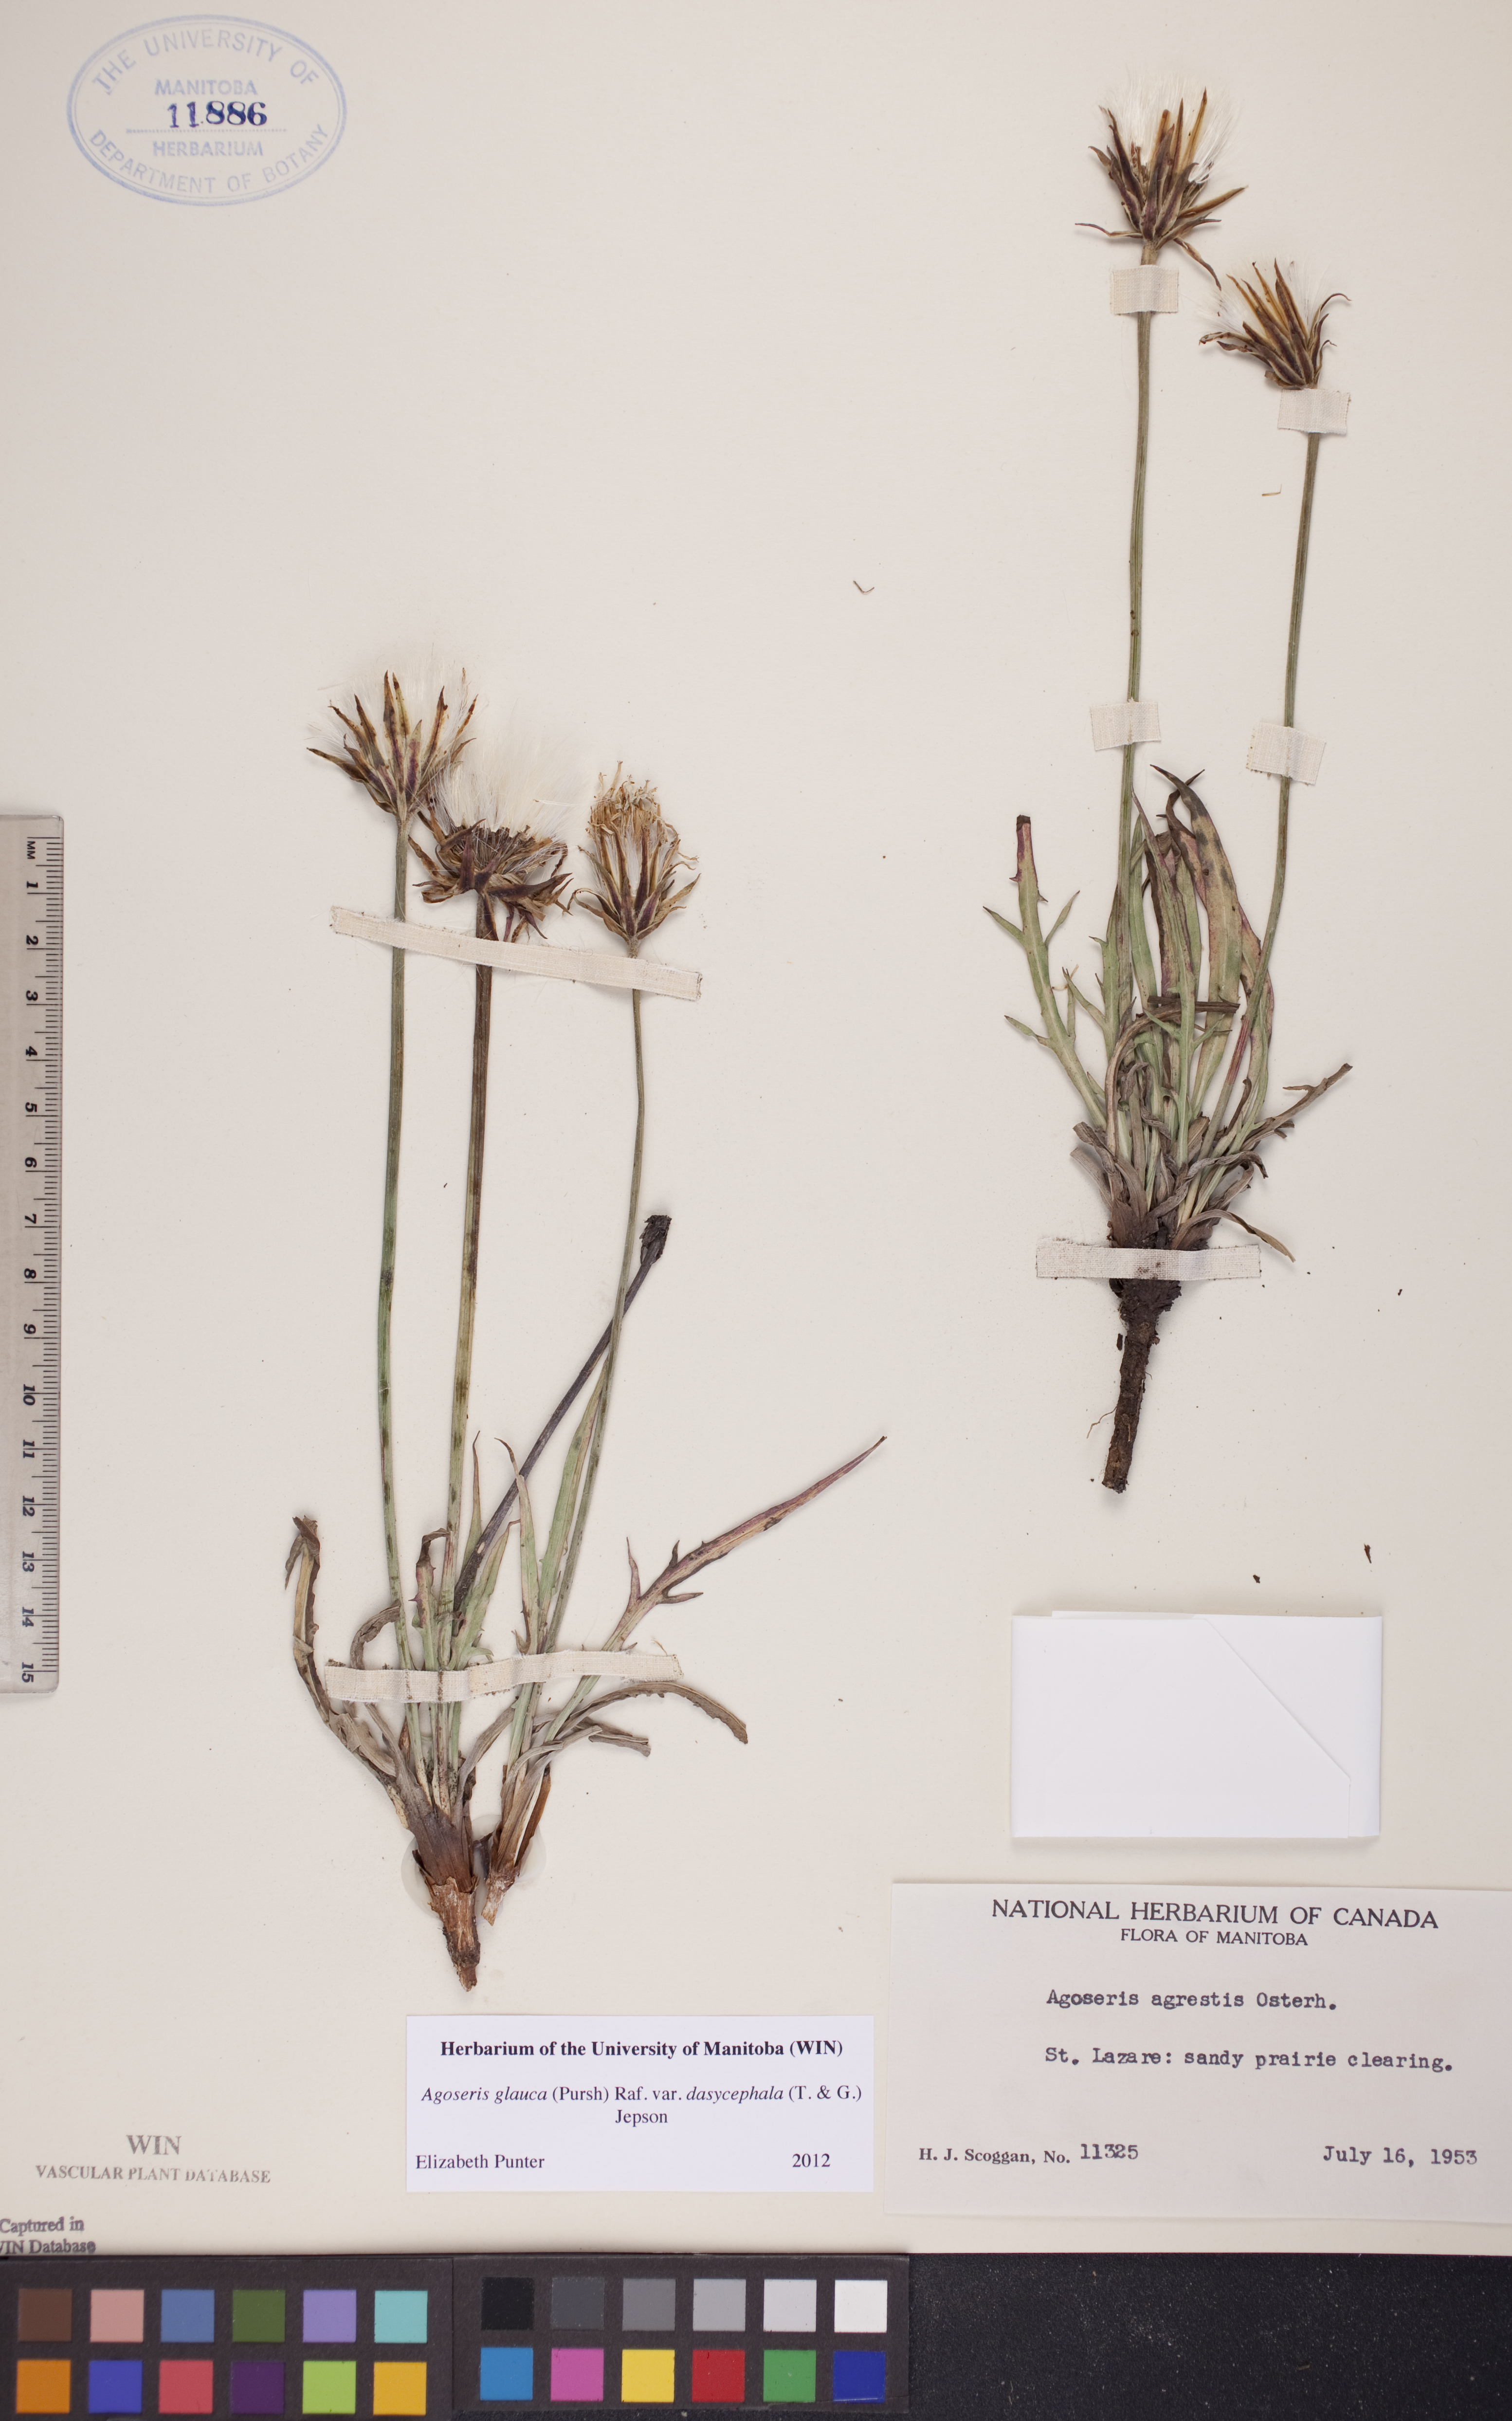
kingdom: Plantae
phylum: Tracheophyta
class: Magnoliopsida
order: Asterales
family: Asteraceae
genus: Agoseris
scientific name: Agoseris glauca
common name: Prairie agoseris
